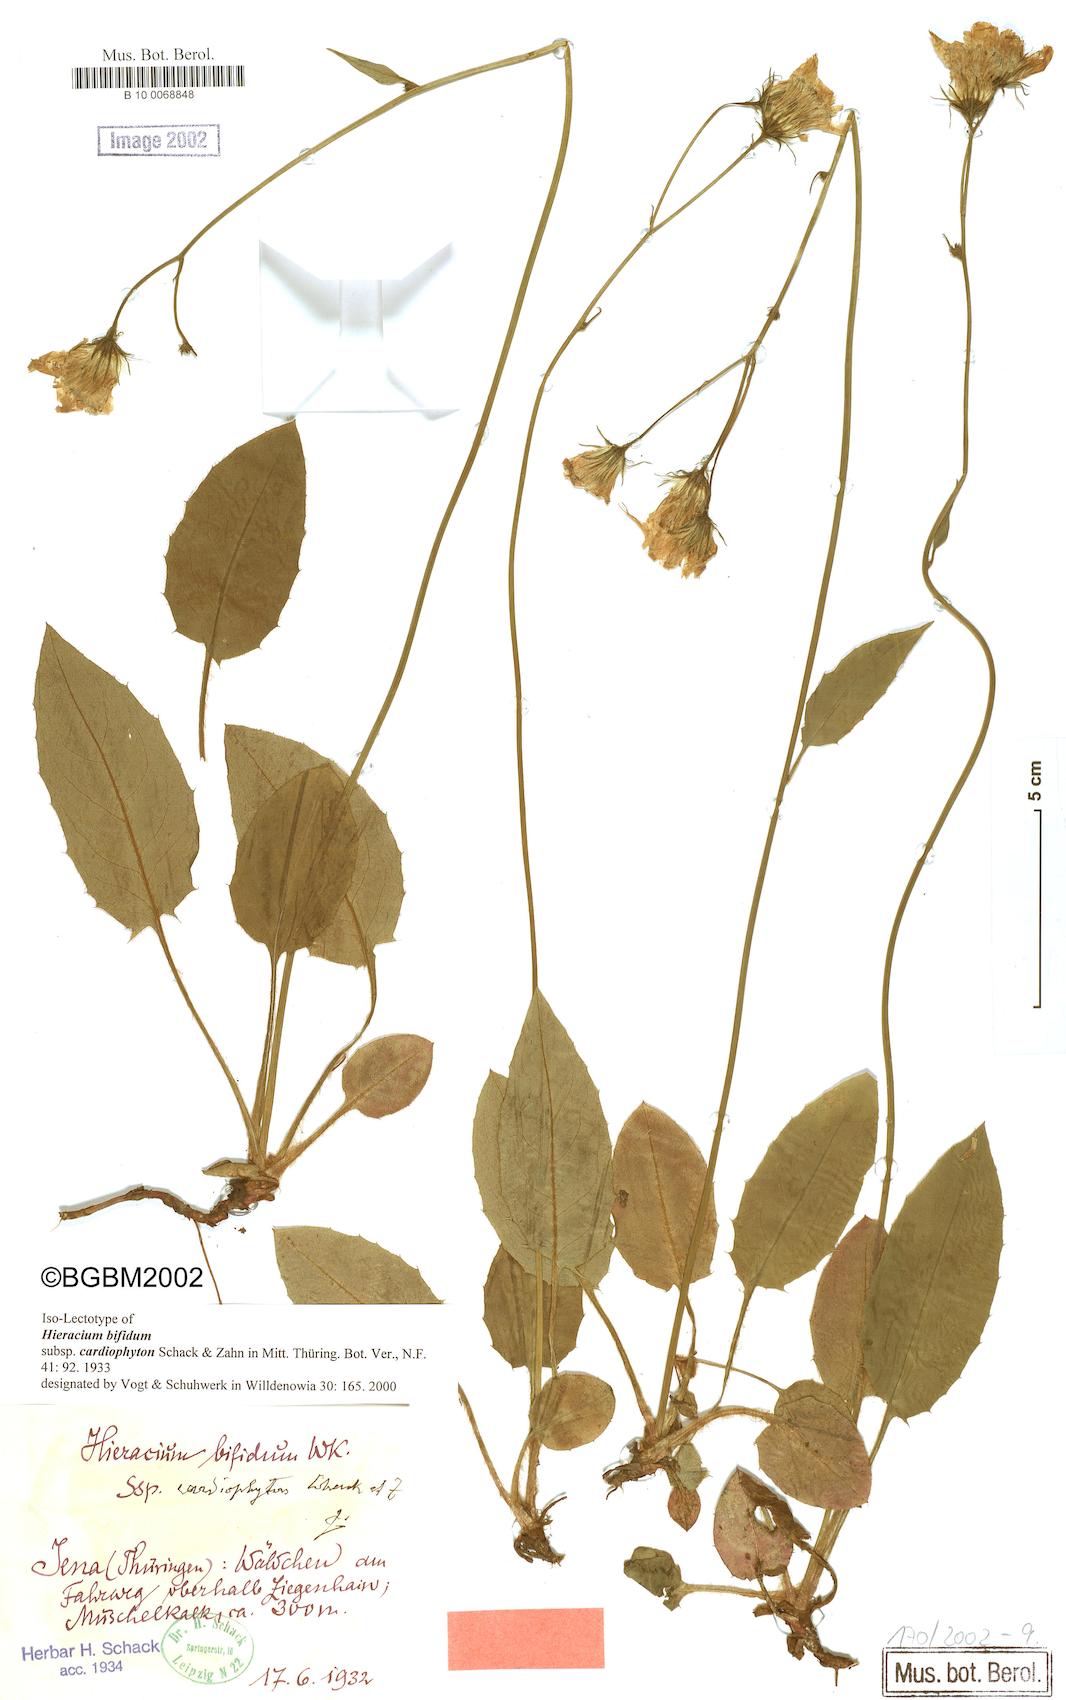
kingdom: Plantae
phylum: Tracheophyta
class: Magnoliopsida
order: Asterales
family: Asteraceae
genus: Hieracium
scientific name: Hieracium bifidum
